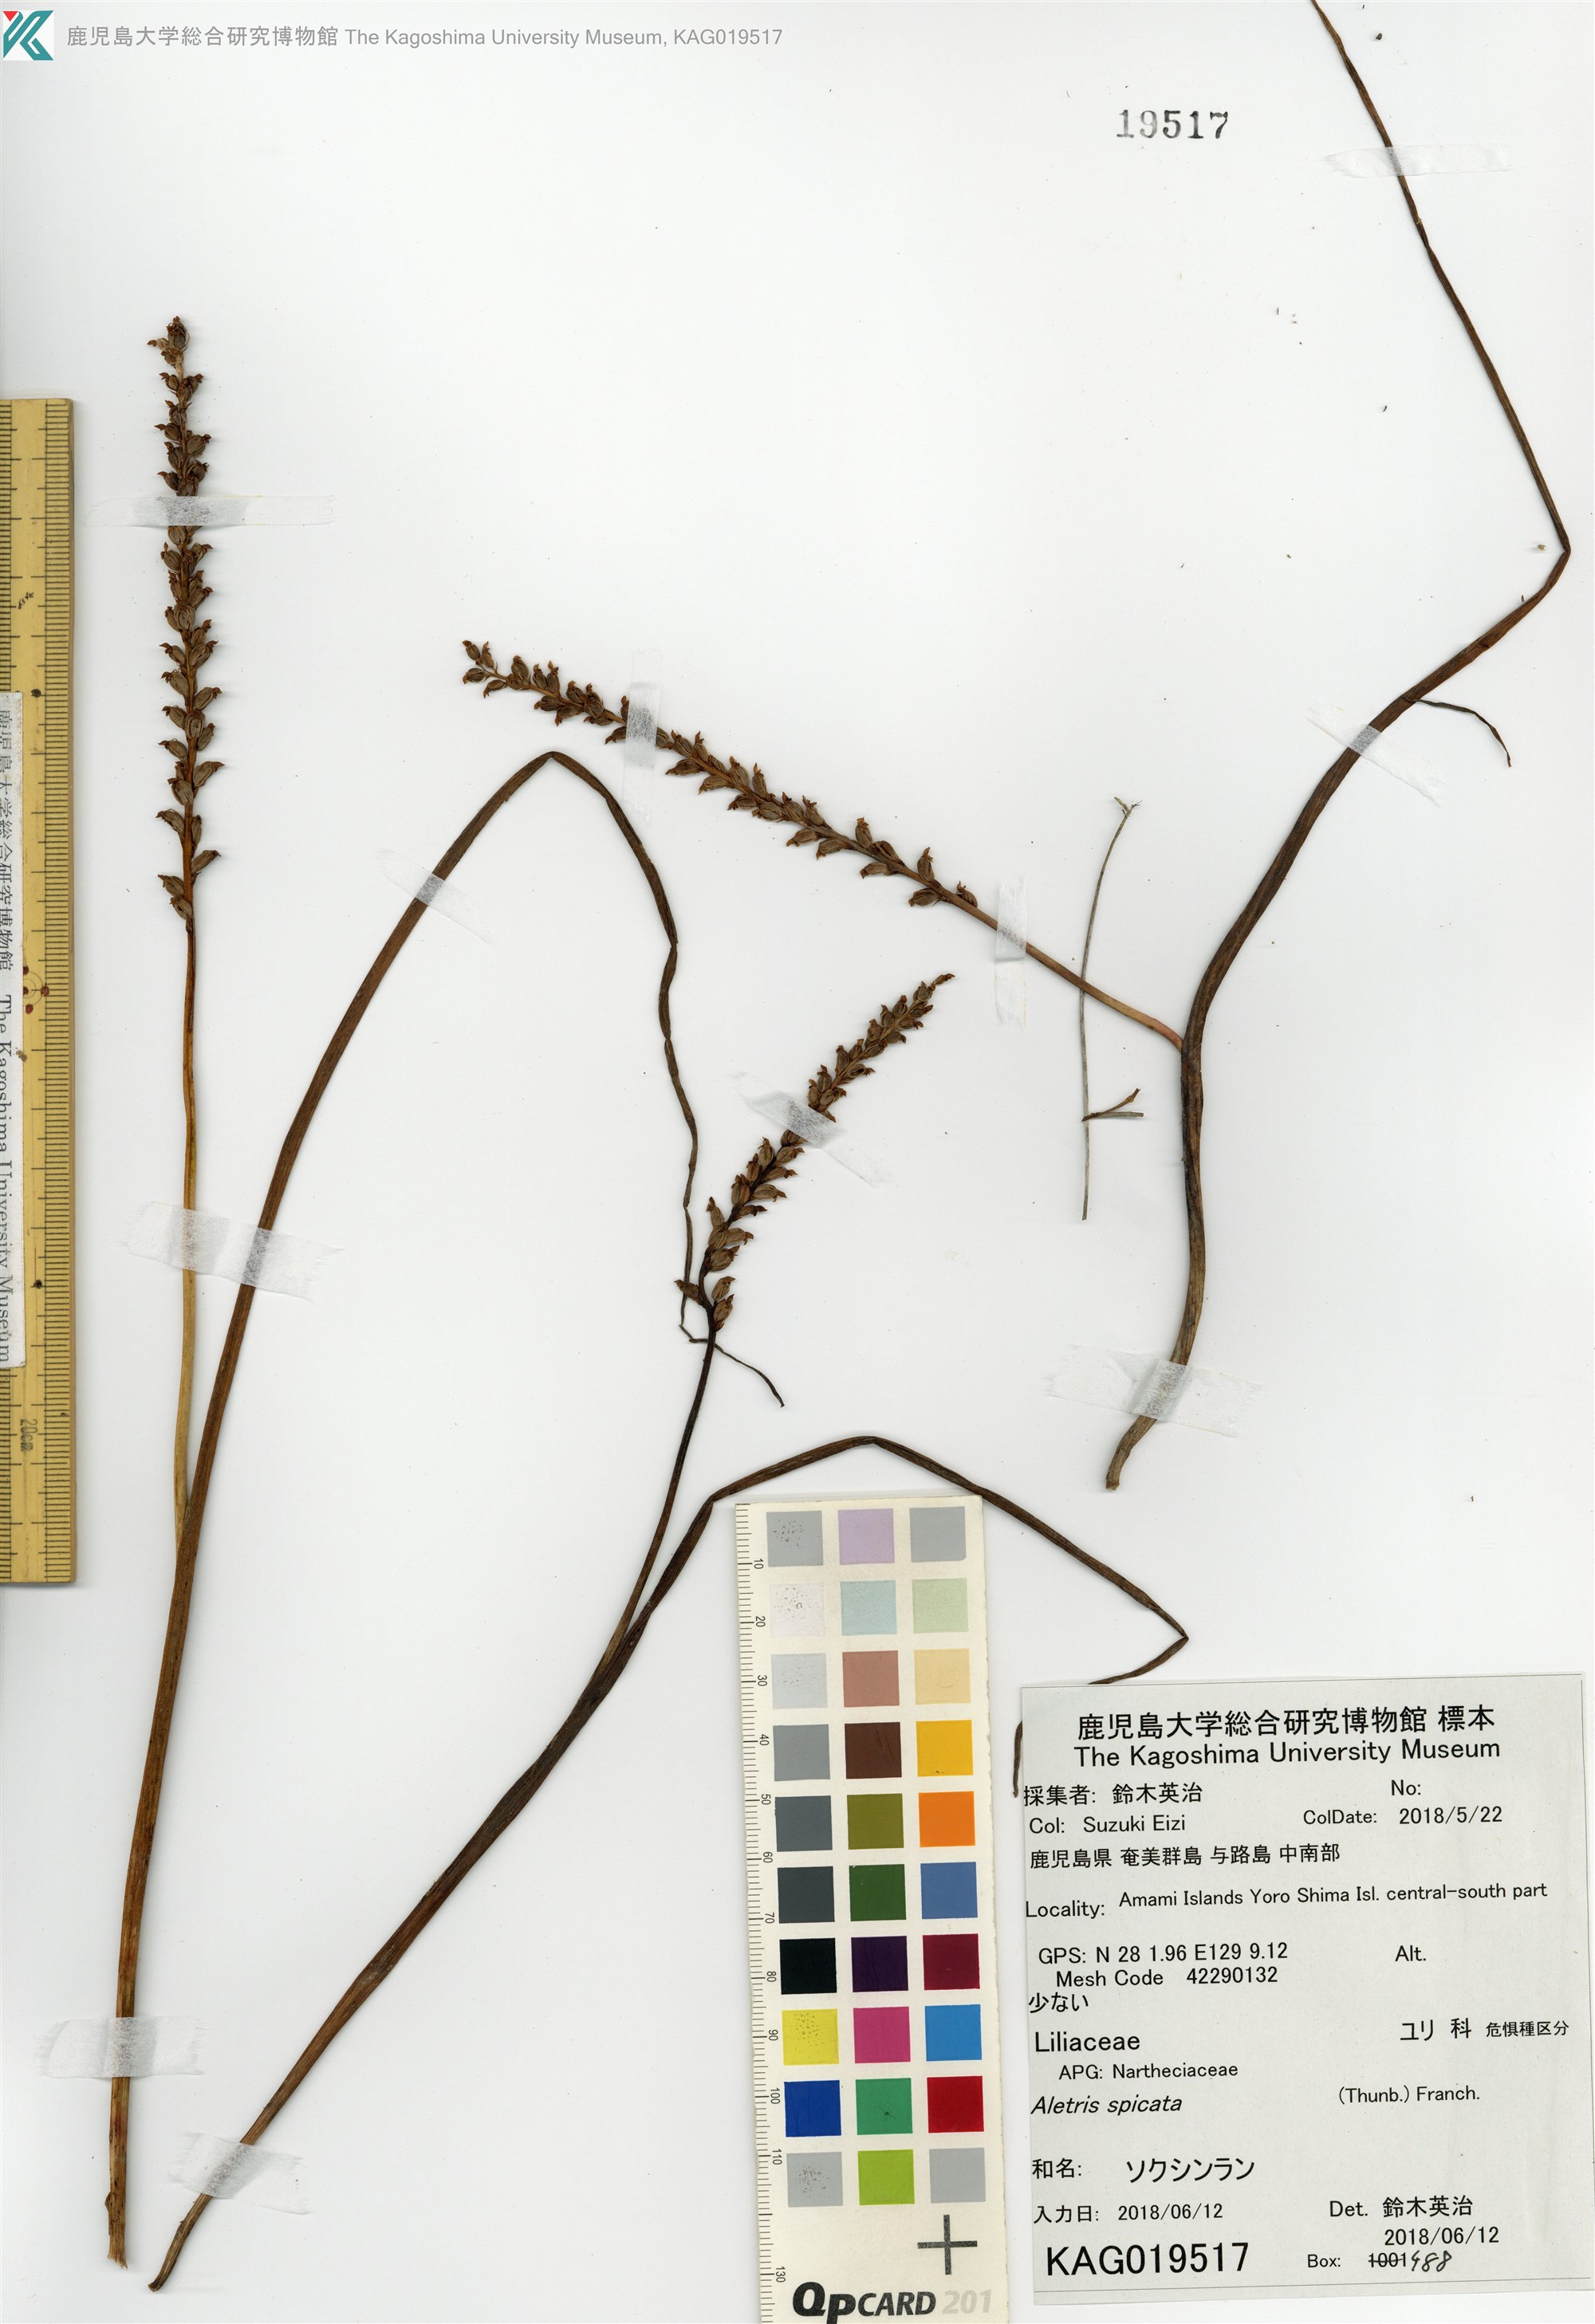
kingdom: Plantae
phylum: Tracheophyta
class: Liliopsida
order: Dioscoreales
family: Nartheciaceae
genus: Aletris
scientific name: Aletris spicata
